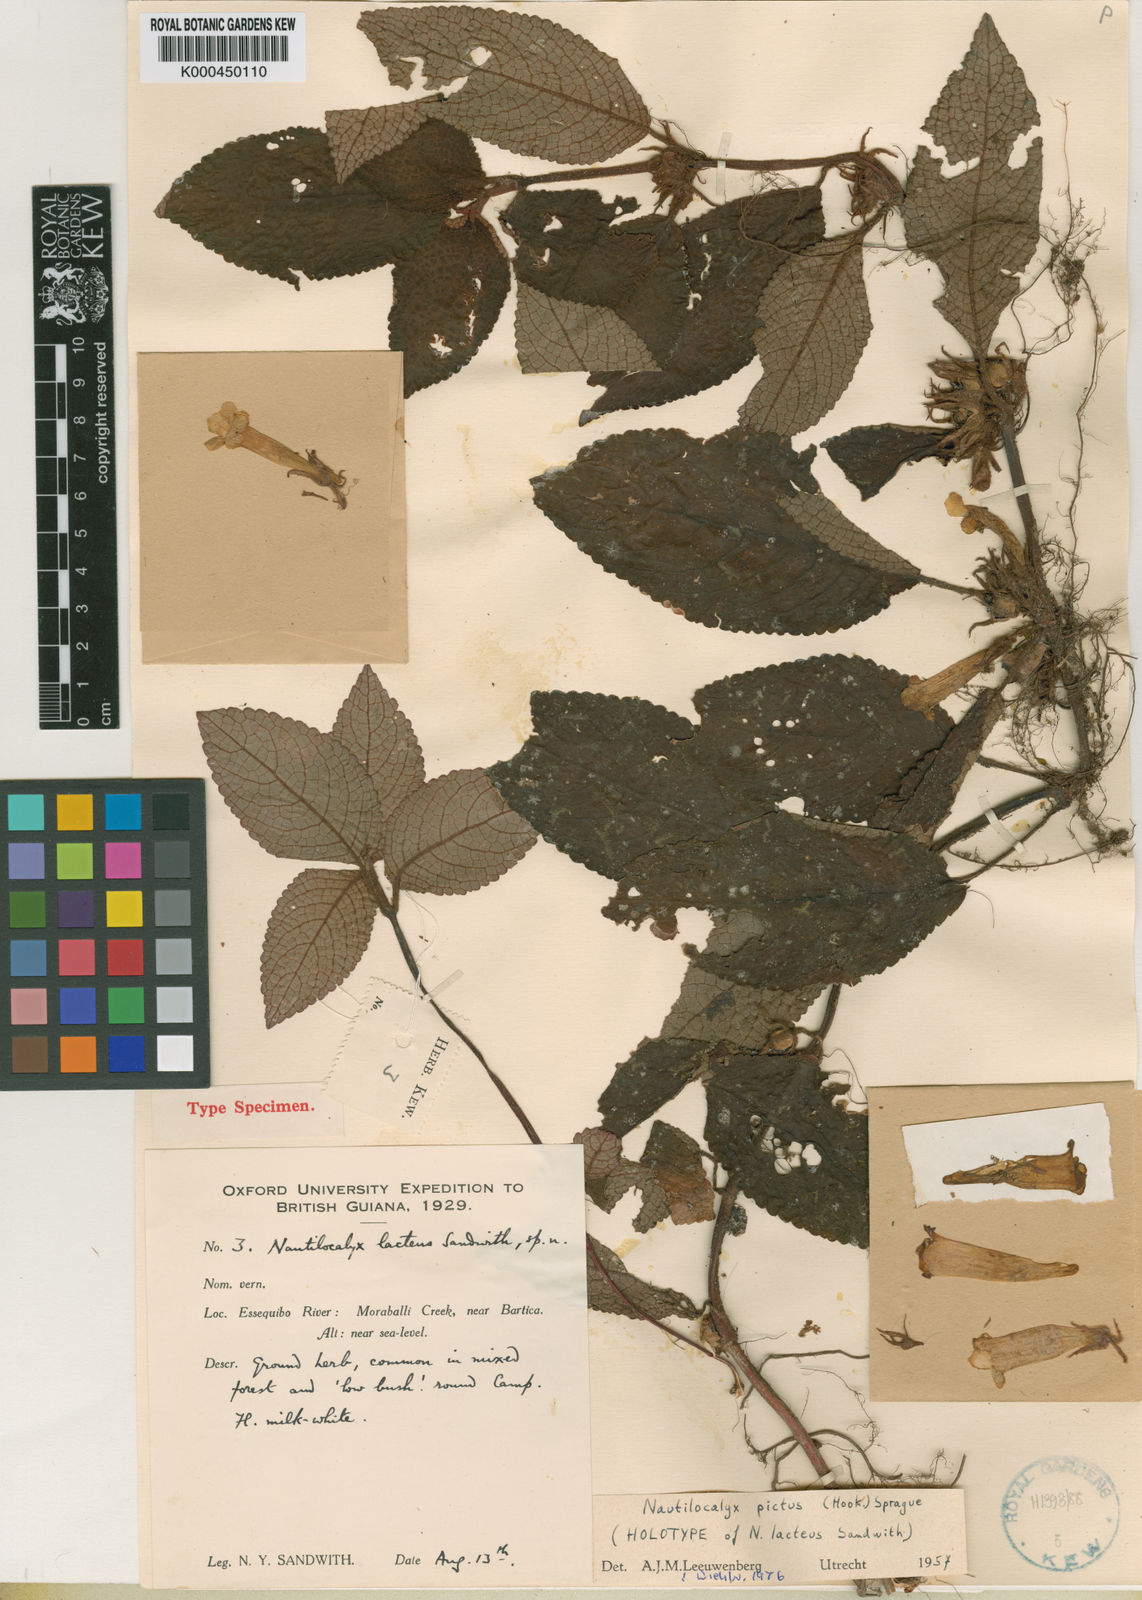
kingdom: Plantae
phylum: Tracheophyta
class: Magnoliopsida
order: Lamiales
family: Gesneriaceae
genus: Centrosolenia
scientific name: Centrosolenia picta
